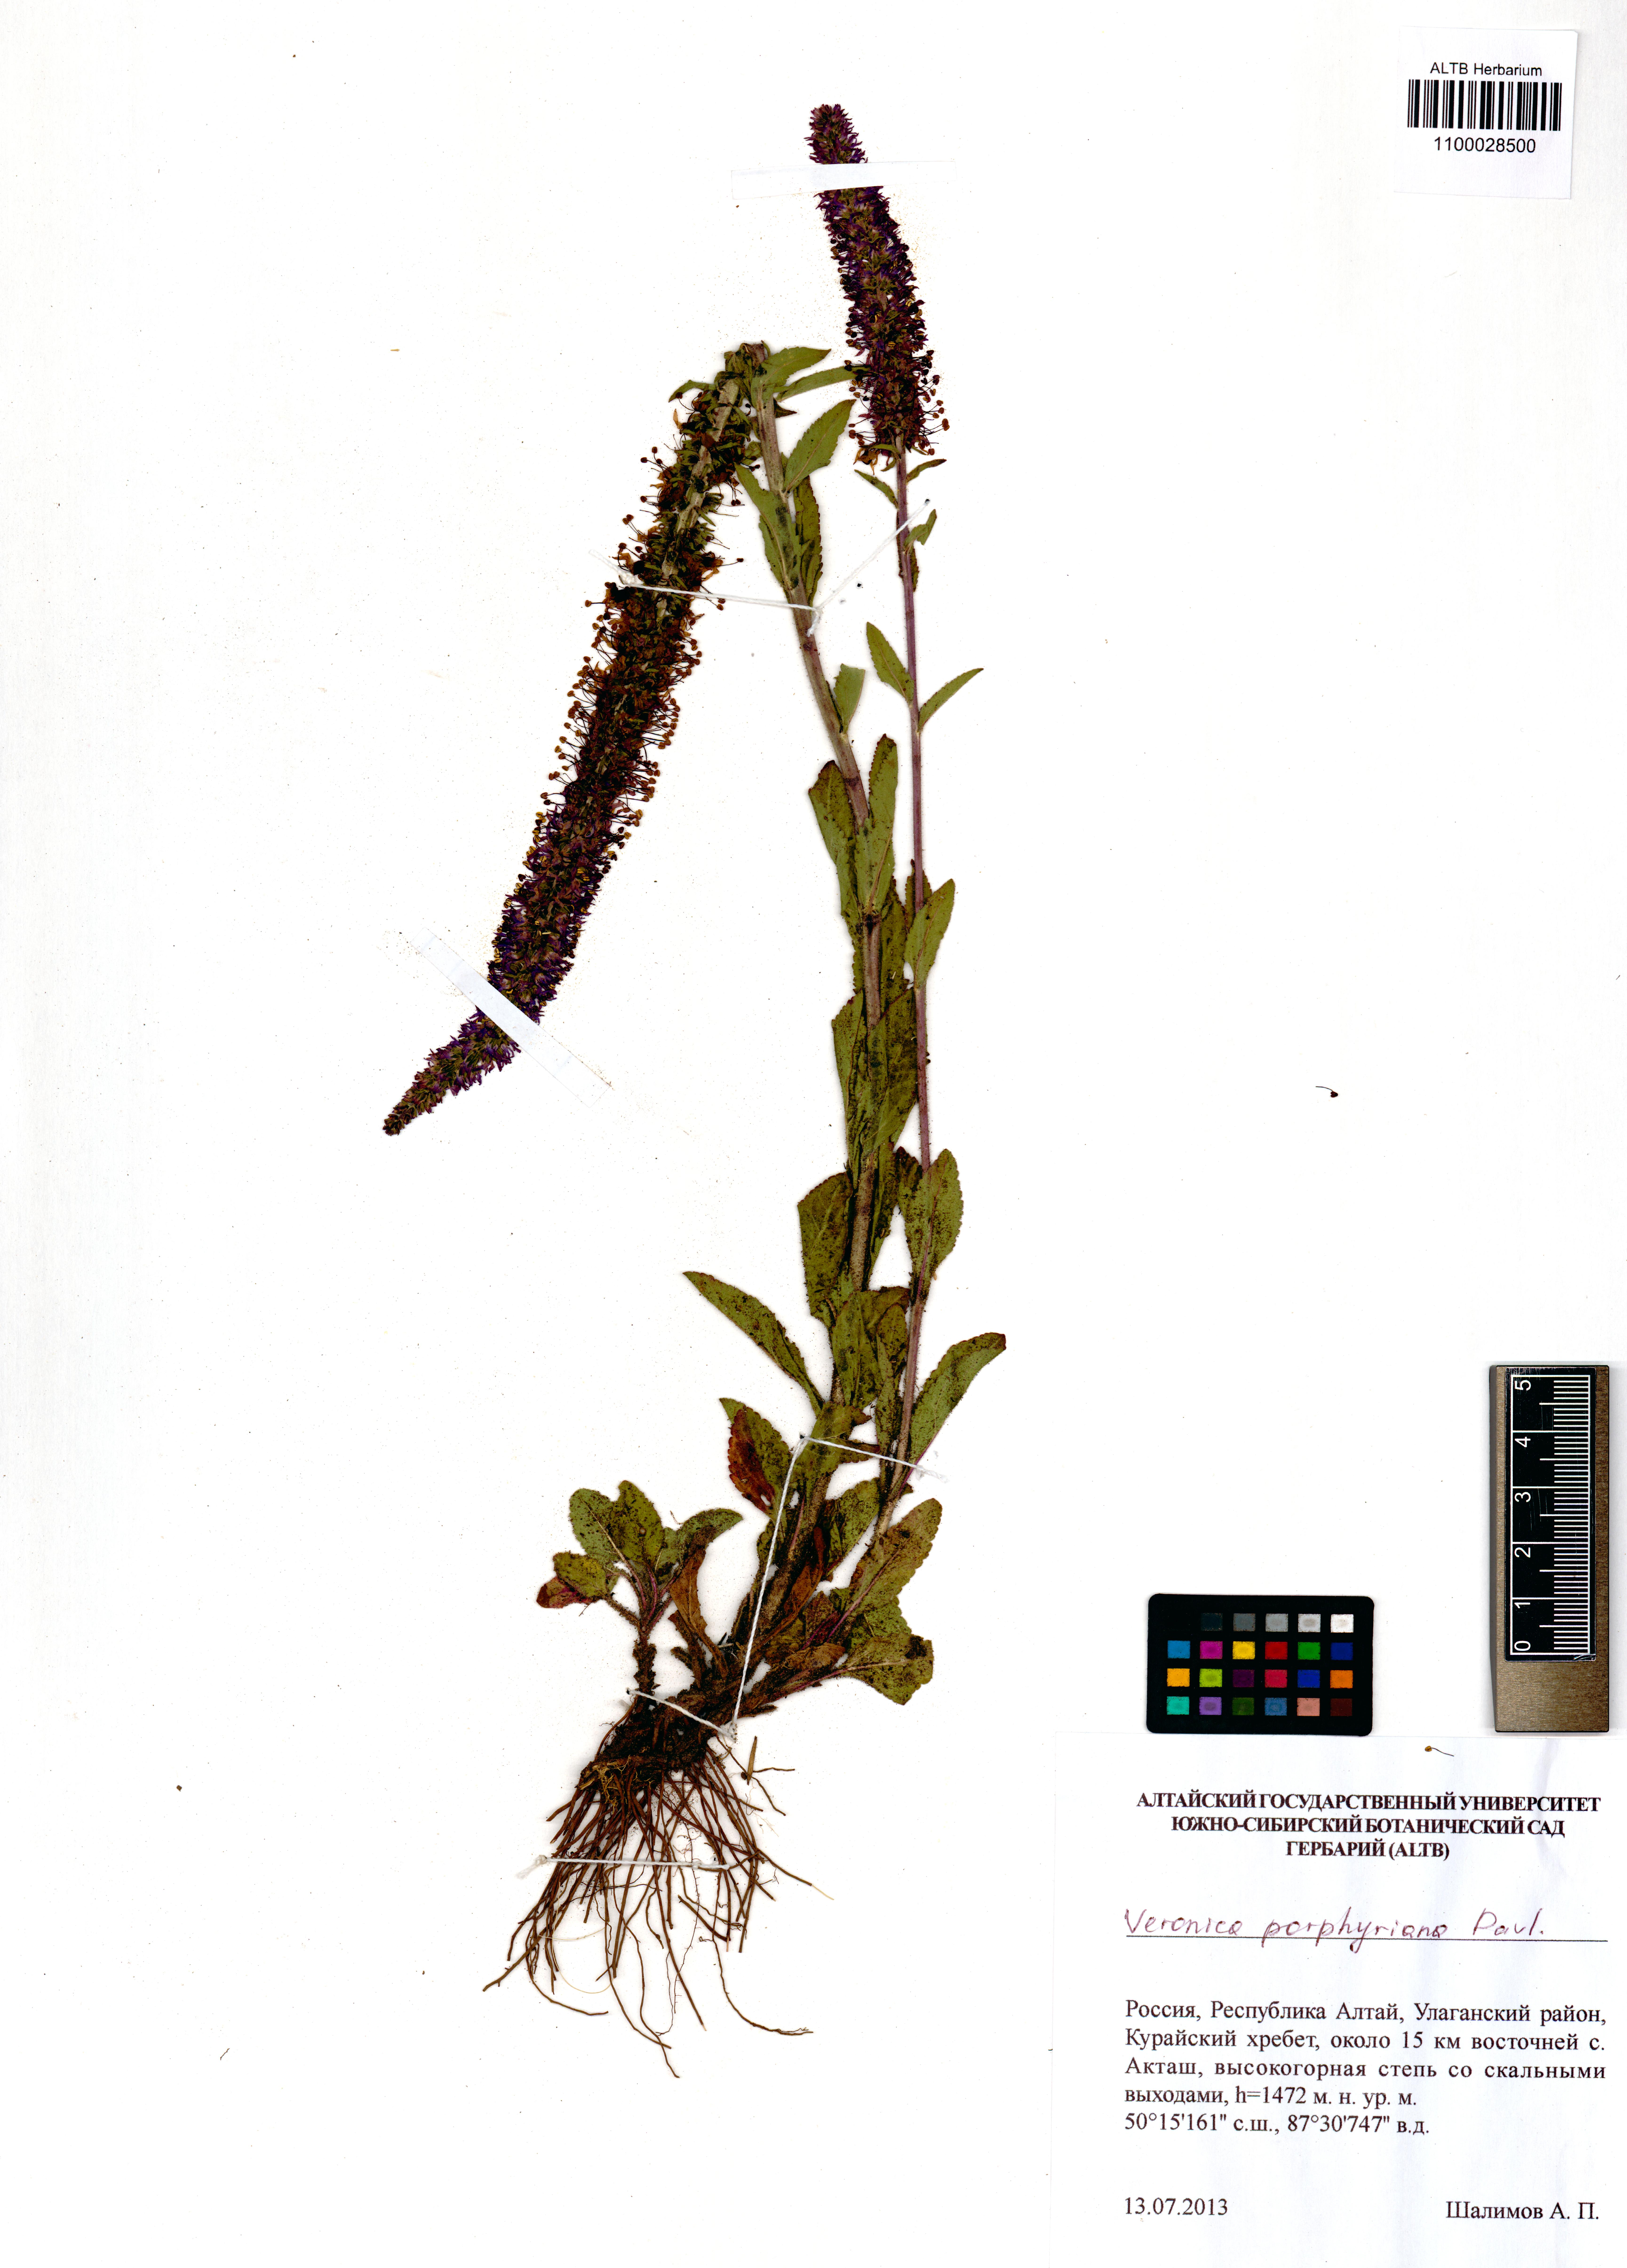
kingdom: Plantae
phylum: Tracheophyta
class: Magnoliopsida
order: Lamiales
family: Plantaginaceae
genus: Veronica
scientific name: Veronica porphyriana
